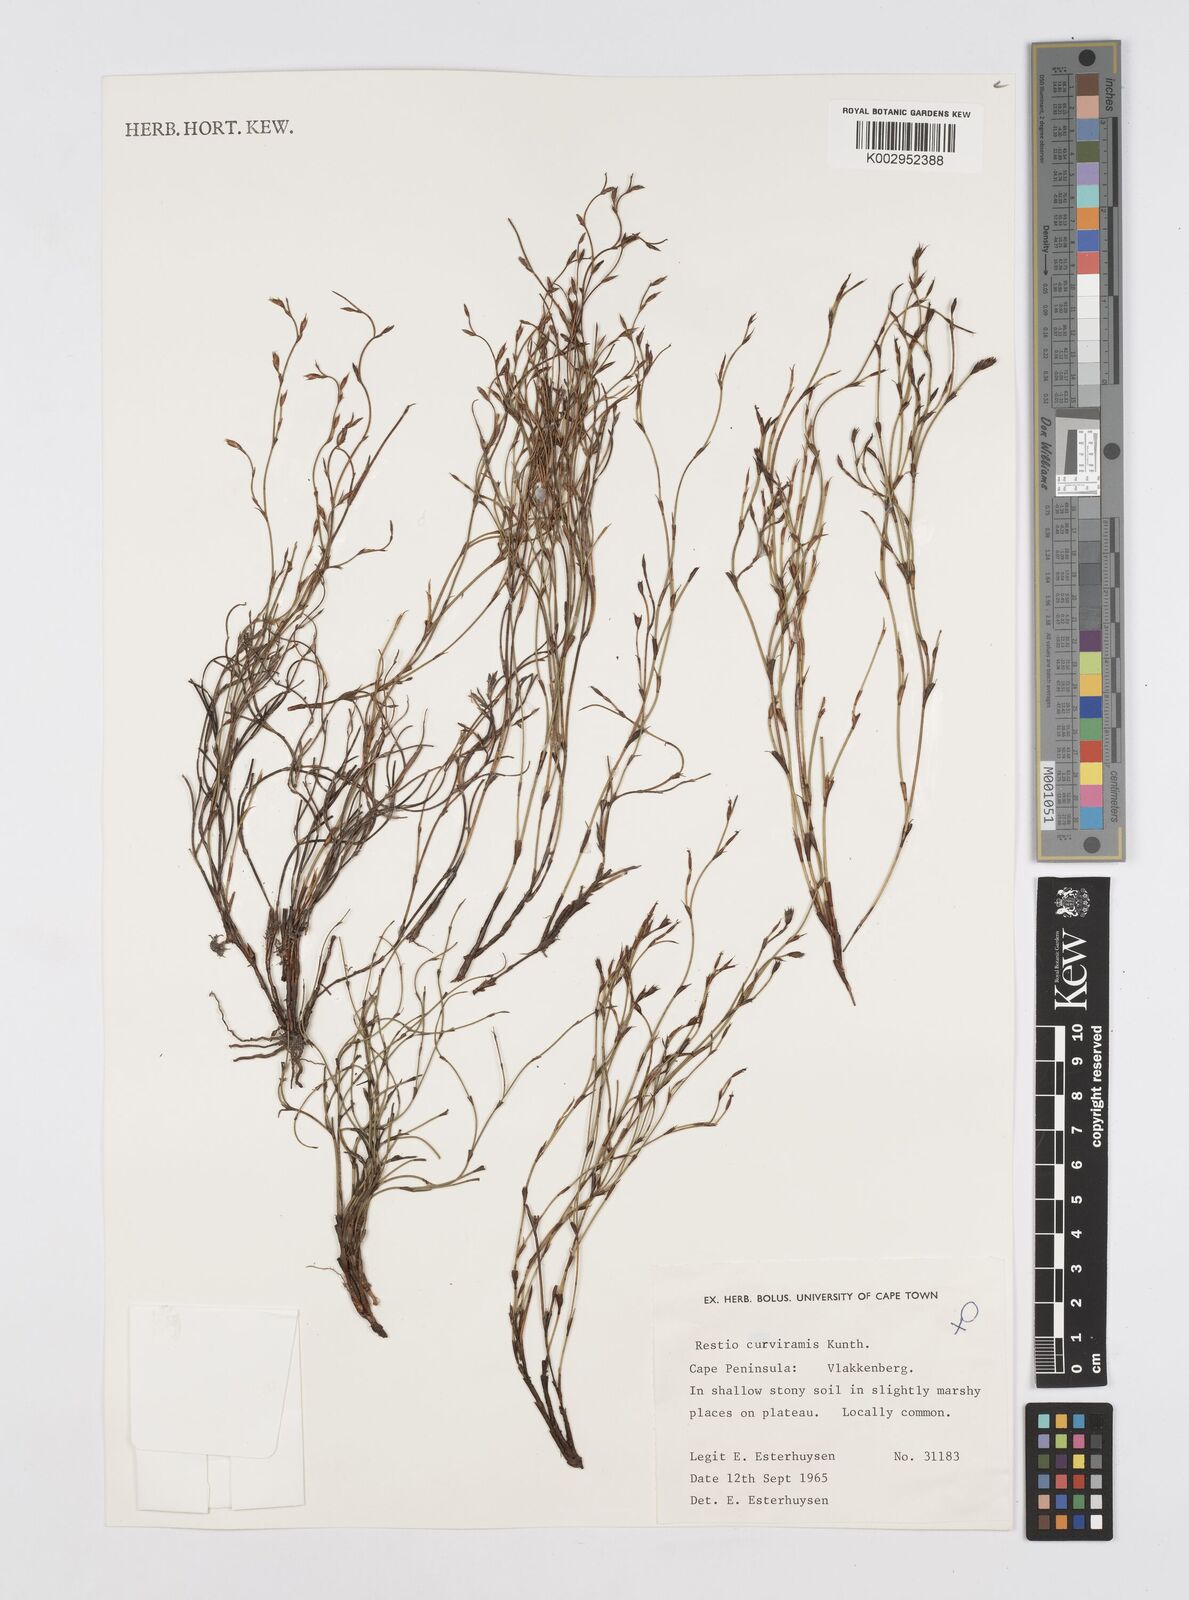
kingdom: Plantae
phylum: Tracheophyta
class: Liliopsida
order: Poales
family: Restionaceae
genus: Restio
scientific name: Restio curviramis
